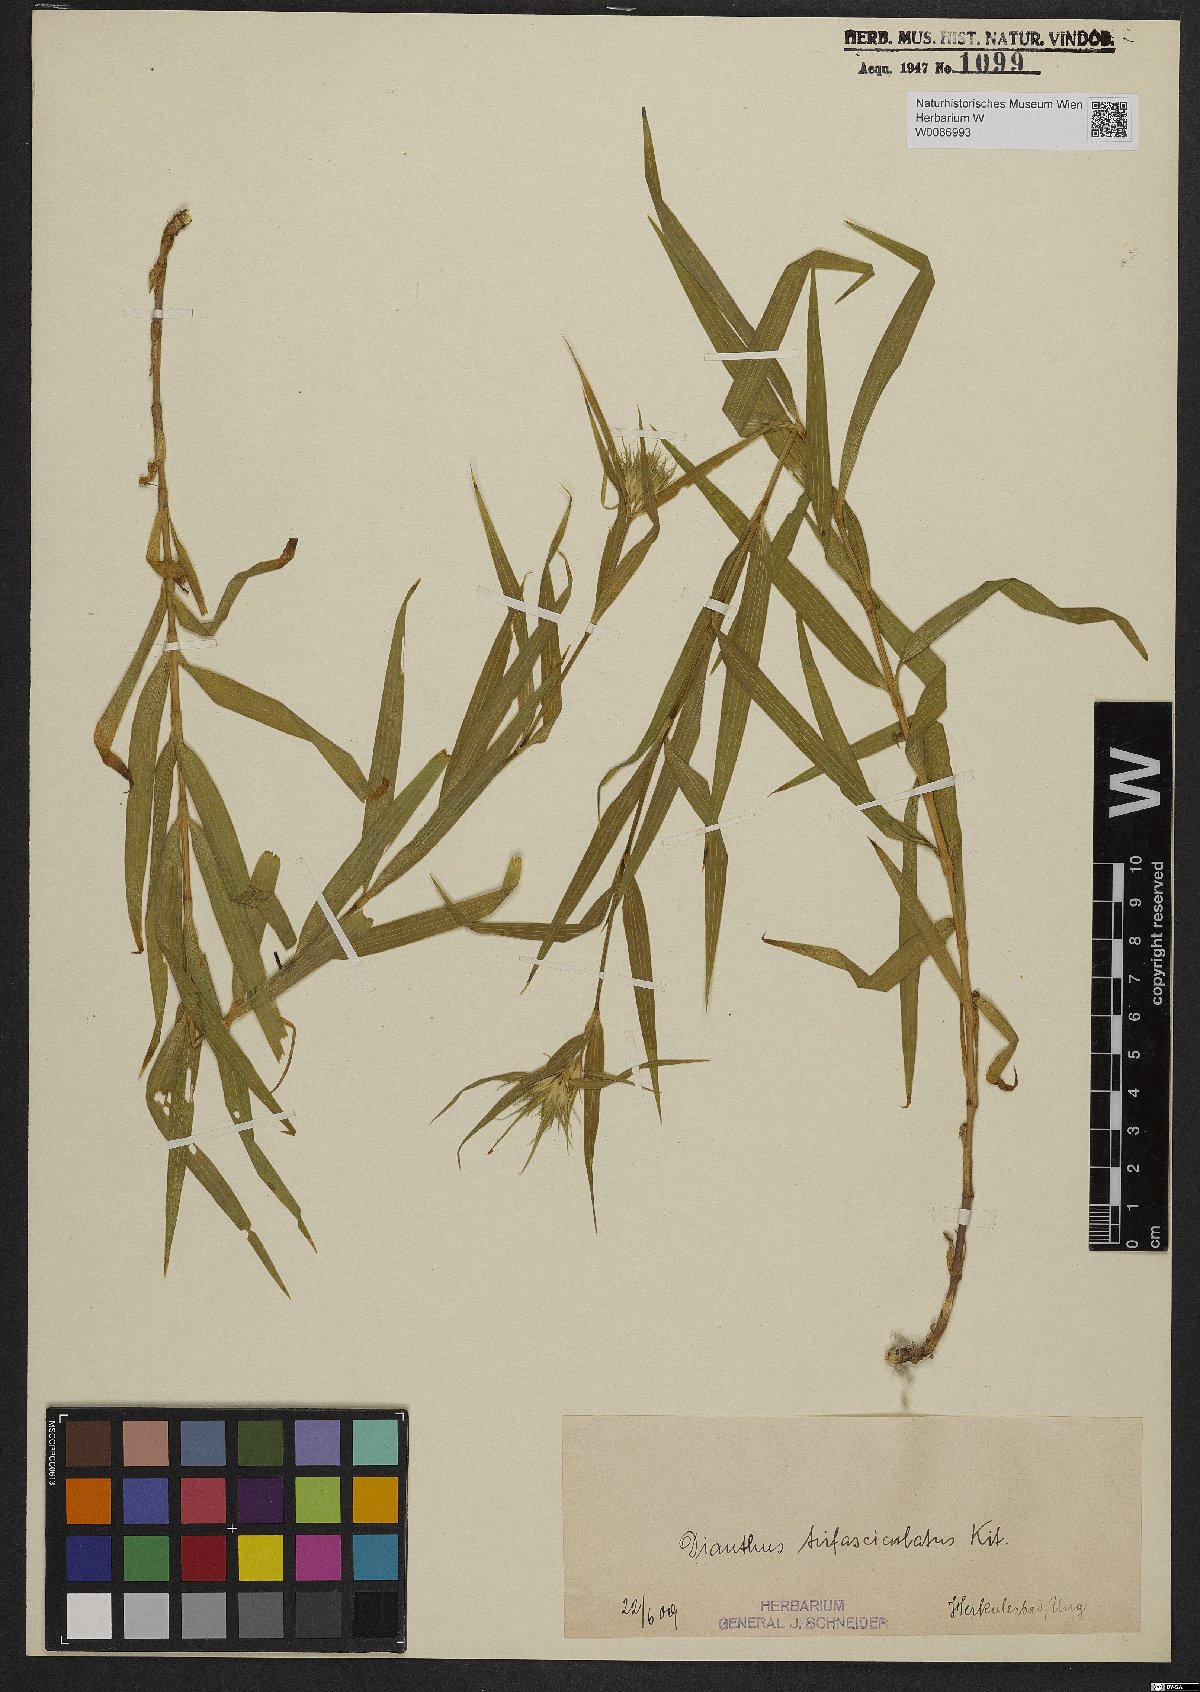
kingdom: Plantae
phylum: Tracheophyta
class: Magnoliopsida
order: Caryophyllales
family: Caryophyllaceae
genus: Dianthus
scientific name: Dianthus trifasciculatus
